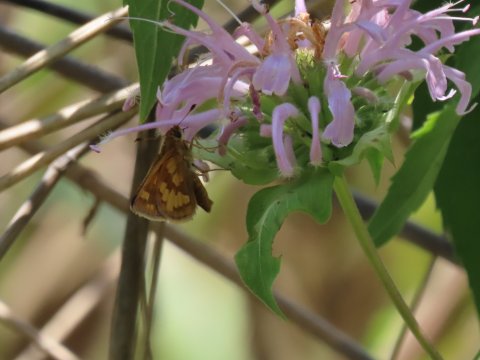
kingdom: Animalia
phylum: Arthropoda
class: Insecta
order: Lepidoptera
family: Hesperiidae
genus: Polites
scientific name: Polites coras
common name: Peck's Skipper
